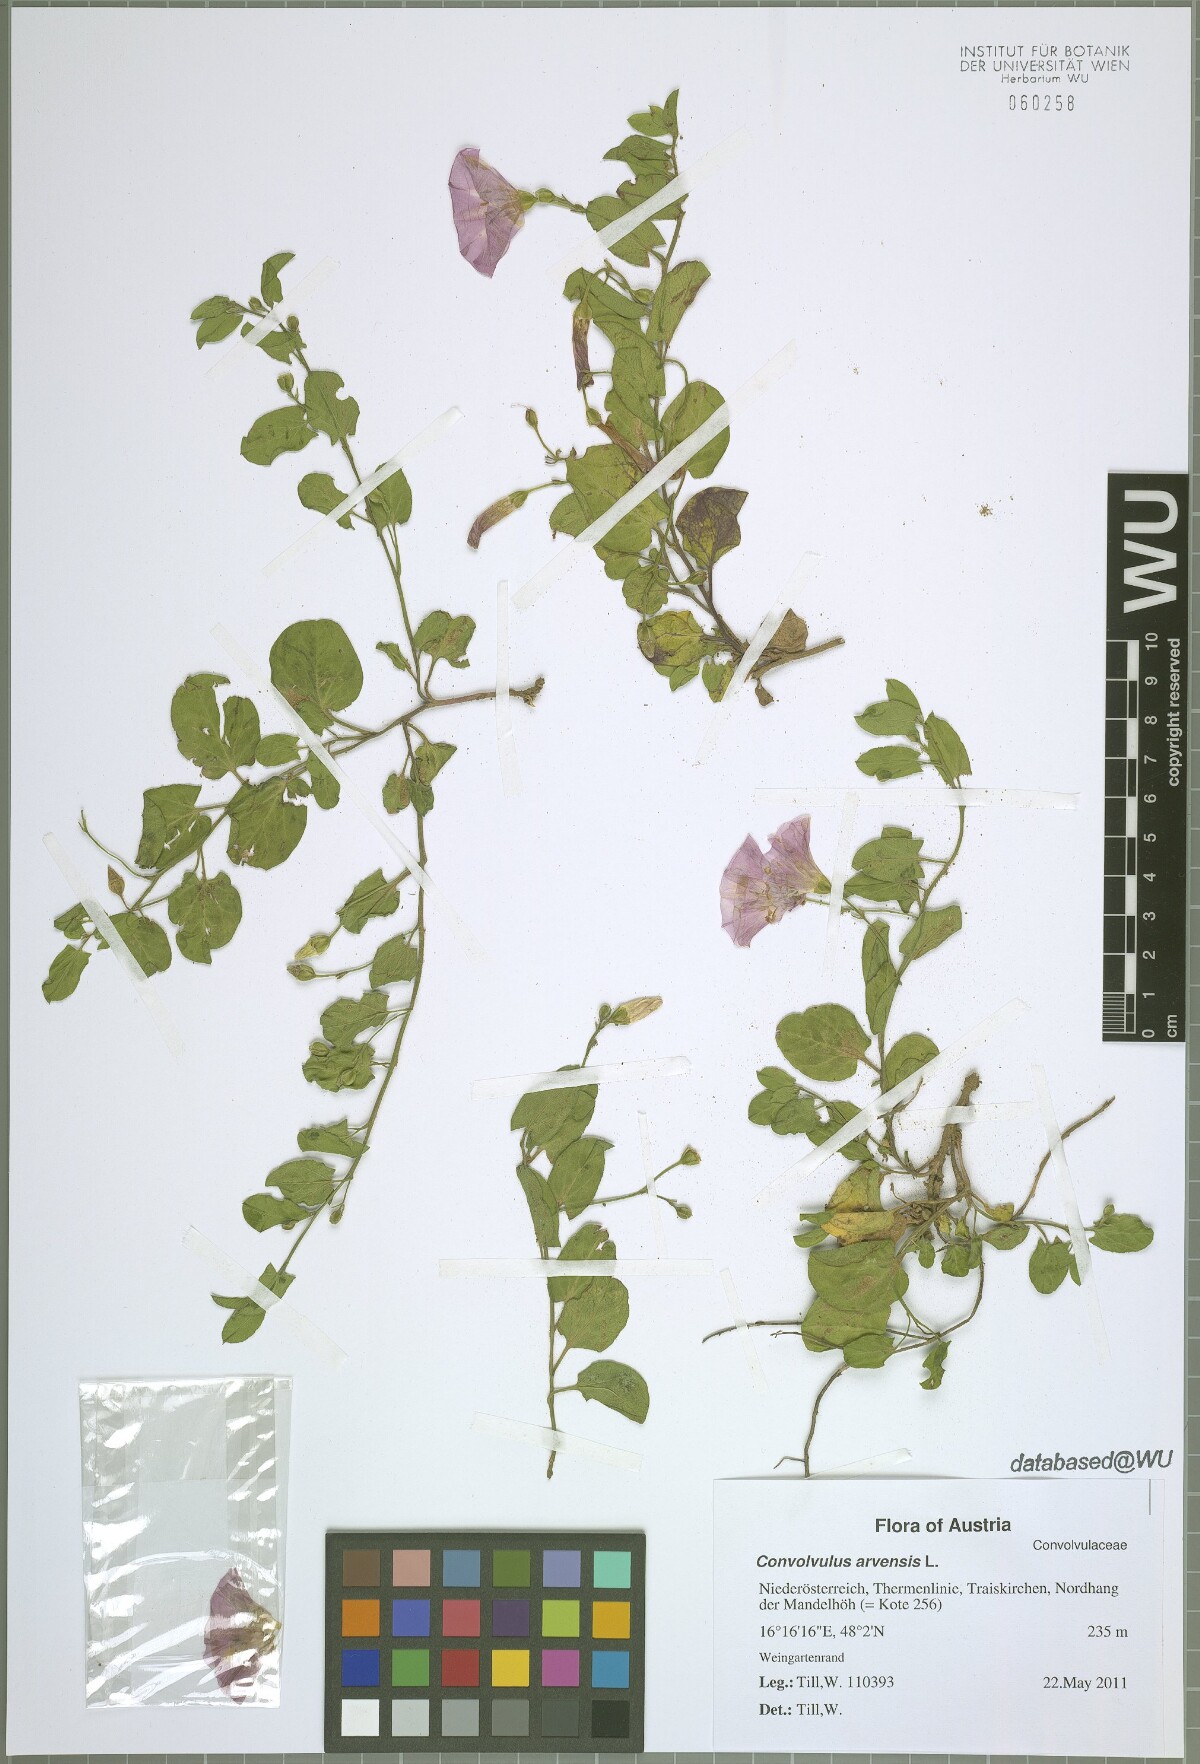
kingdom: Plantae
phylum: Tracheophyta
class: Magnoliopsida
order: Solanales
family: Convolvulaceae
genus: Convolvulus
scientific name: Convolvulus arvensis
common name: Field bindweed
